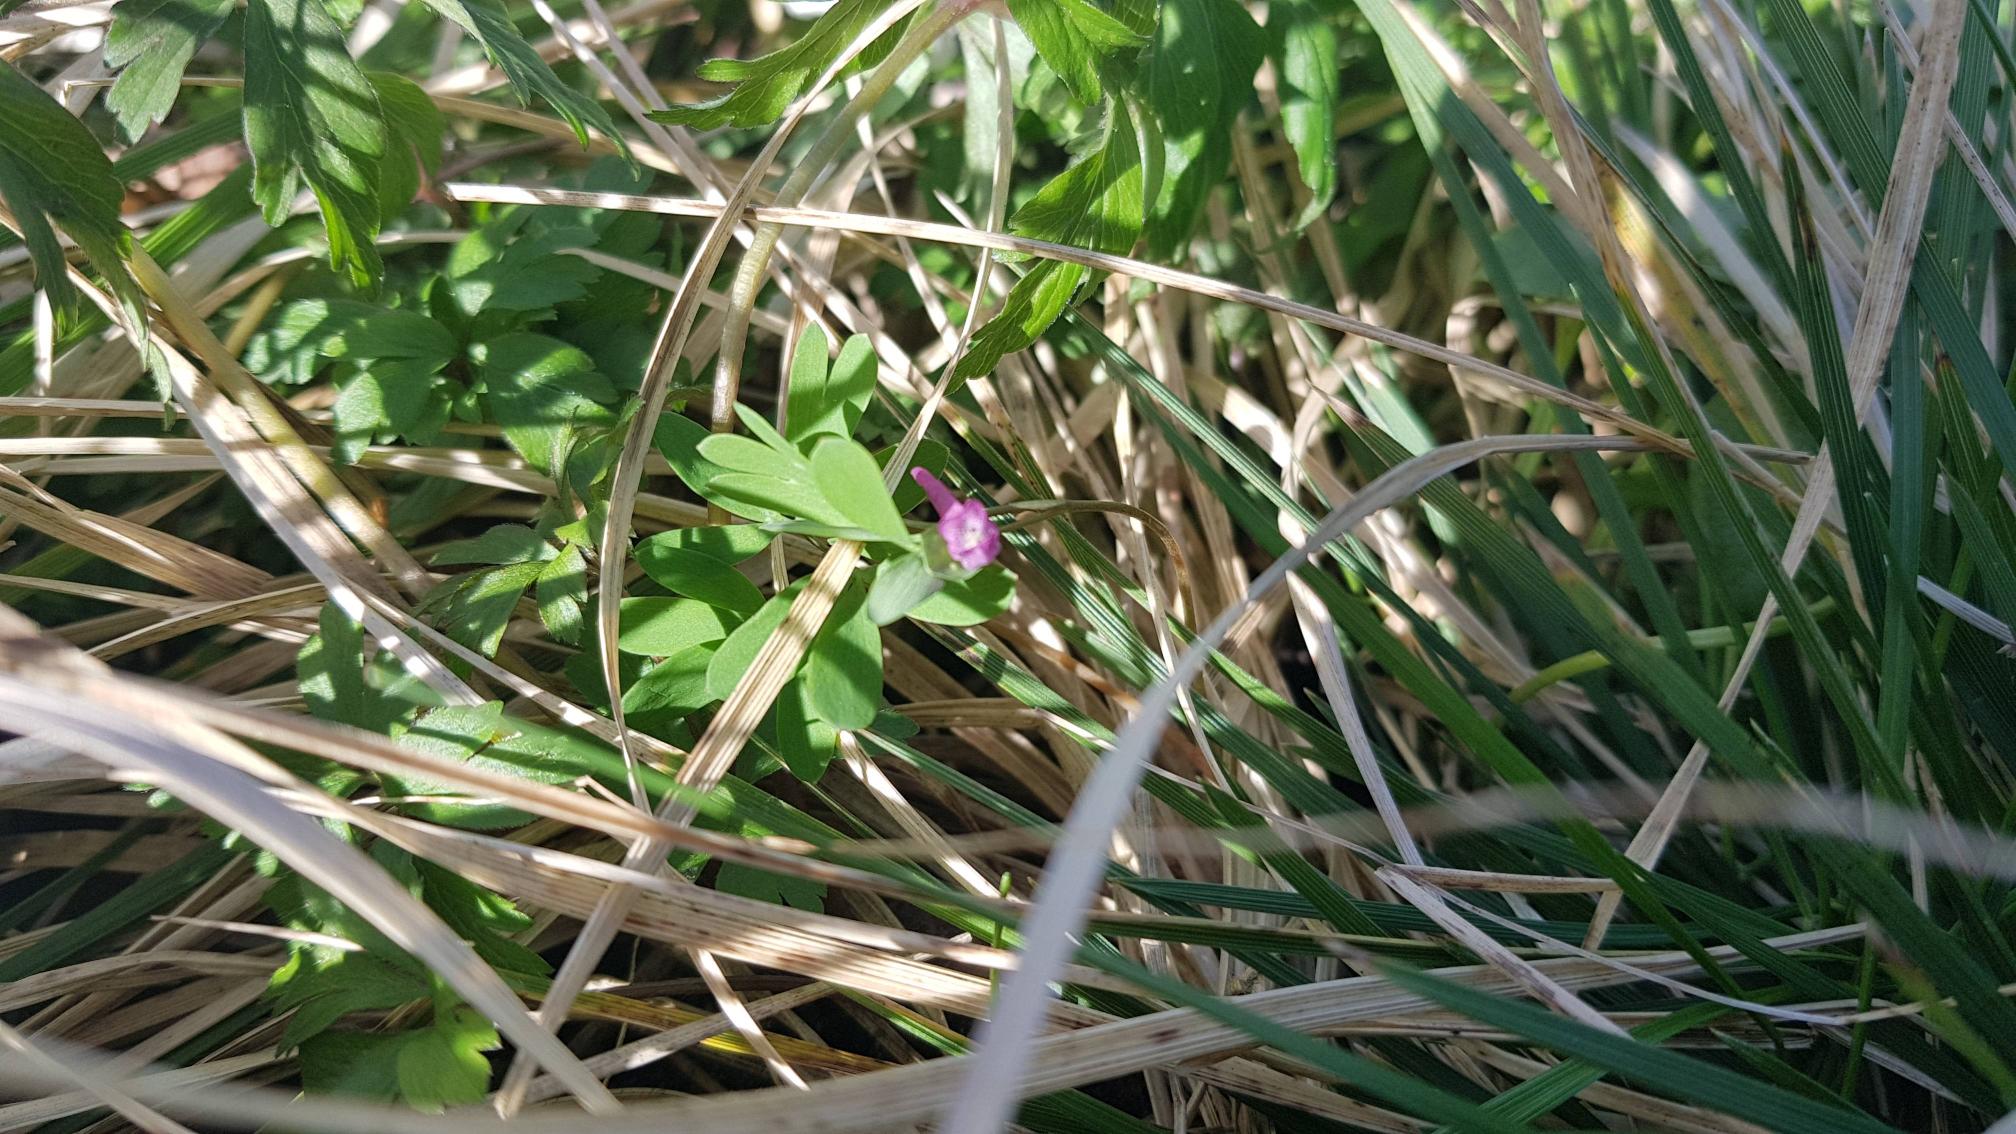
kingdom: Plantae
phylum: Tracheophyta
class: Magnoliopsida
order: Ranunculales
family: Papaveraceae
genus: Corydalis
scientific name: Corydalis intermedia
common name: Liden lærkespore
